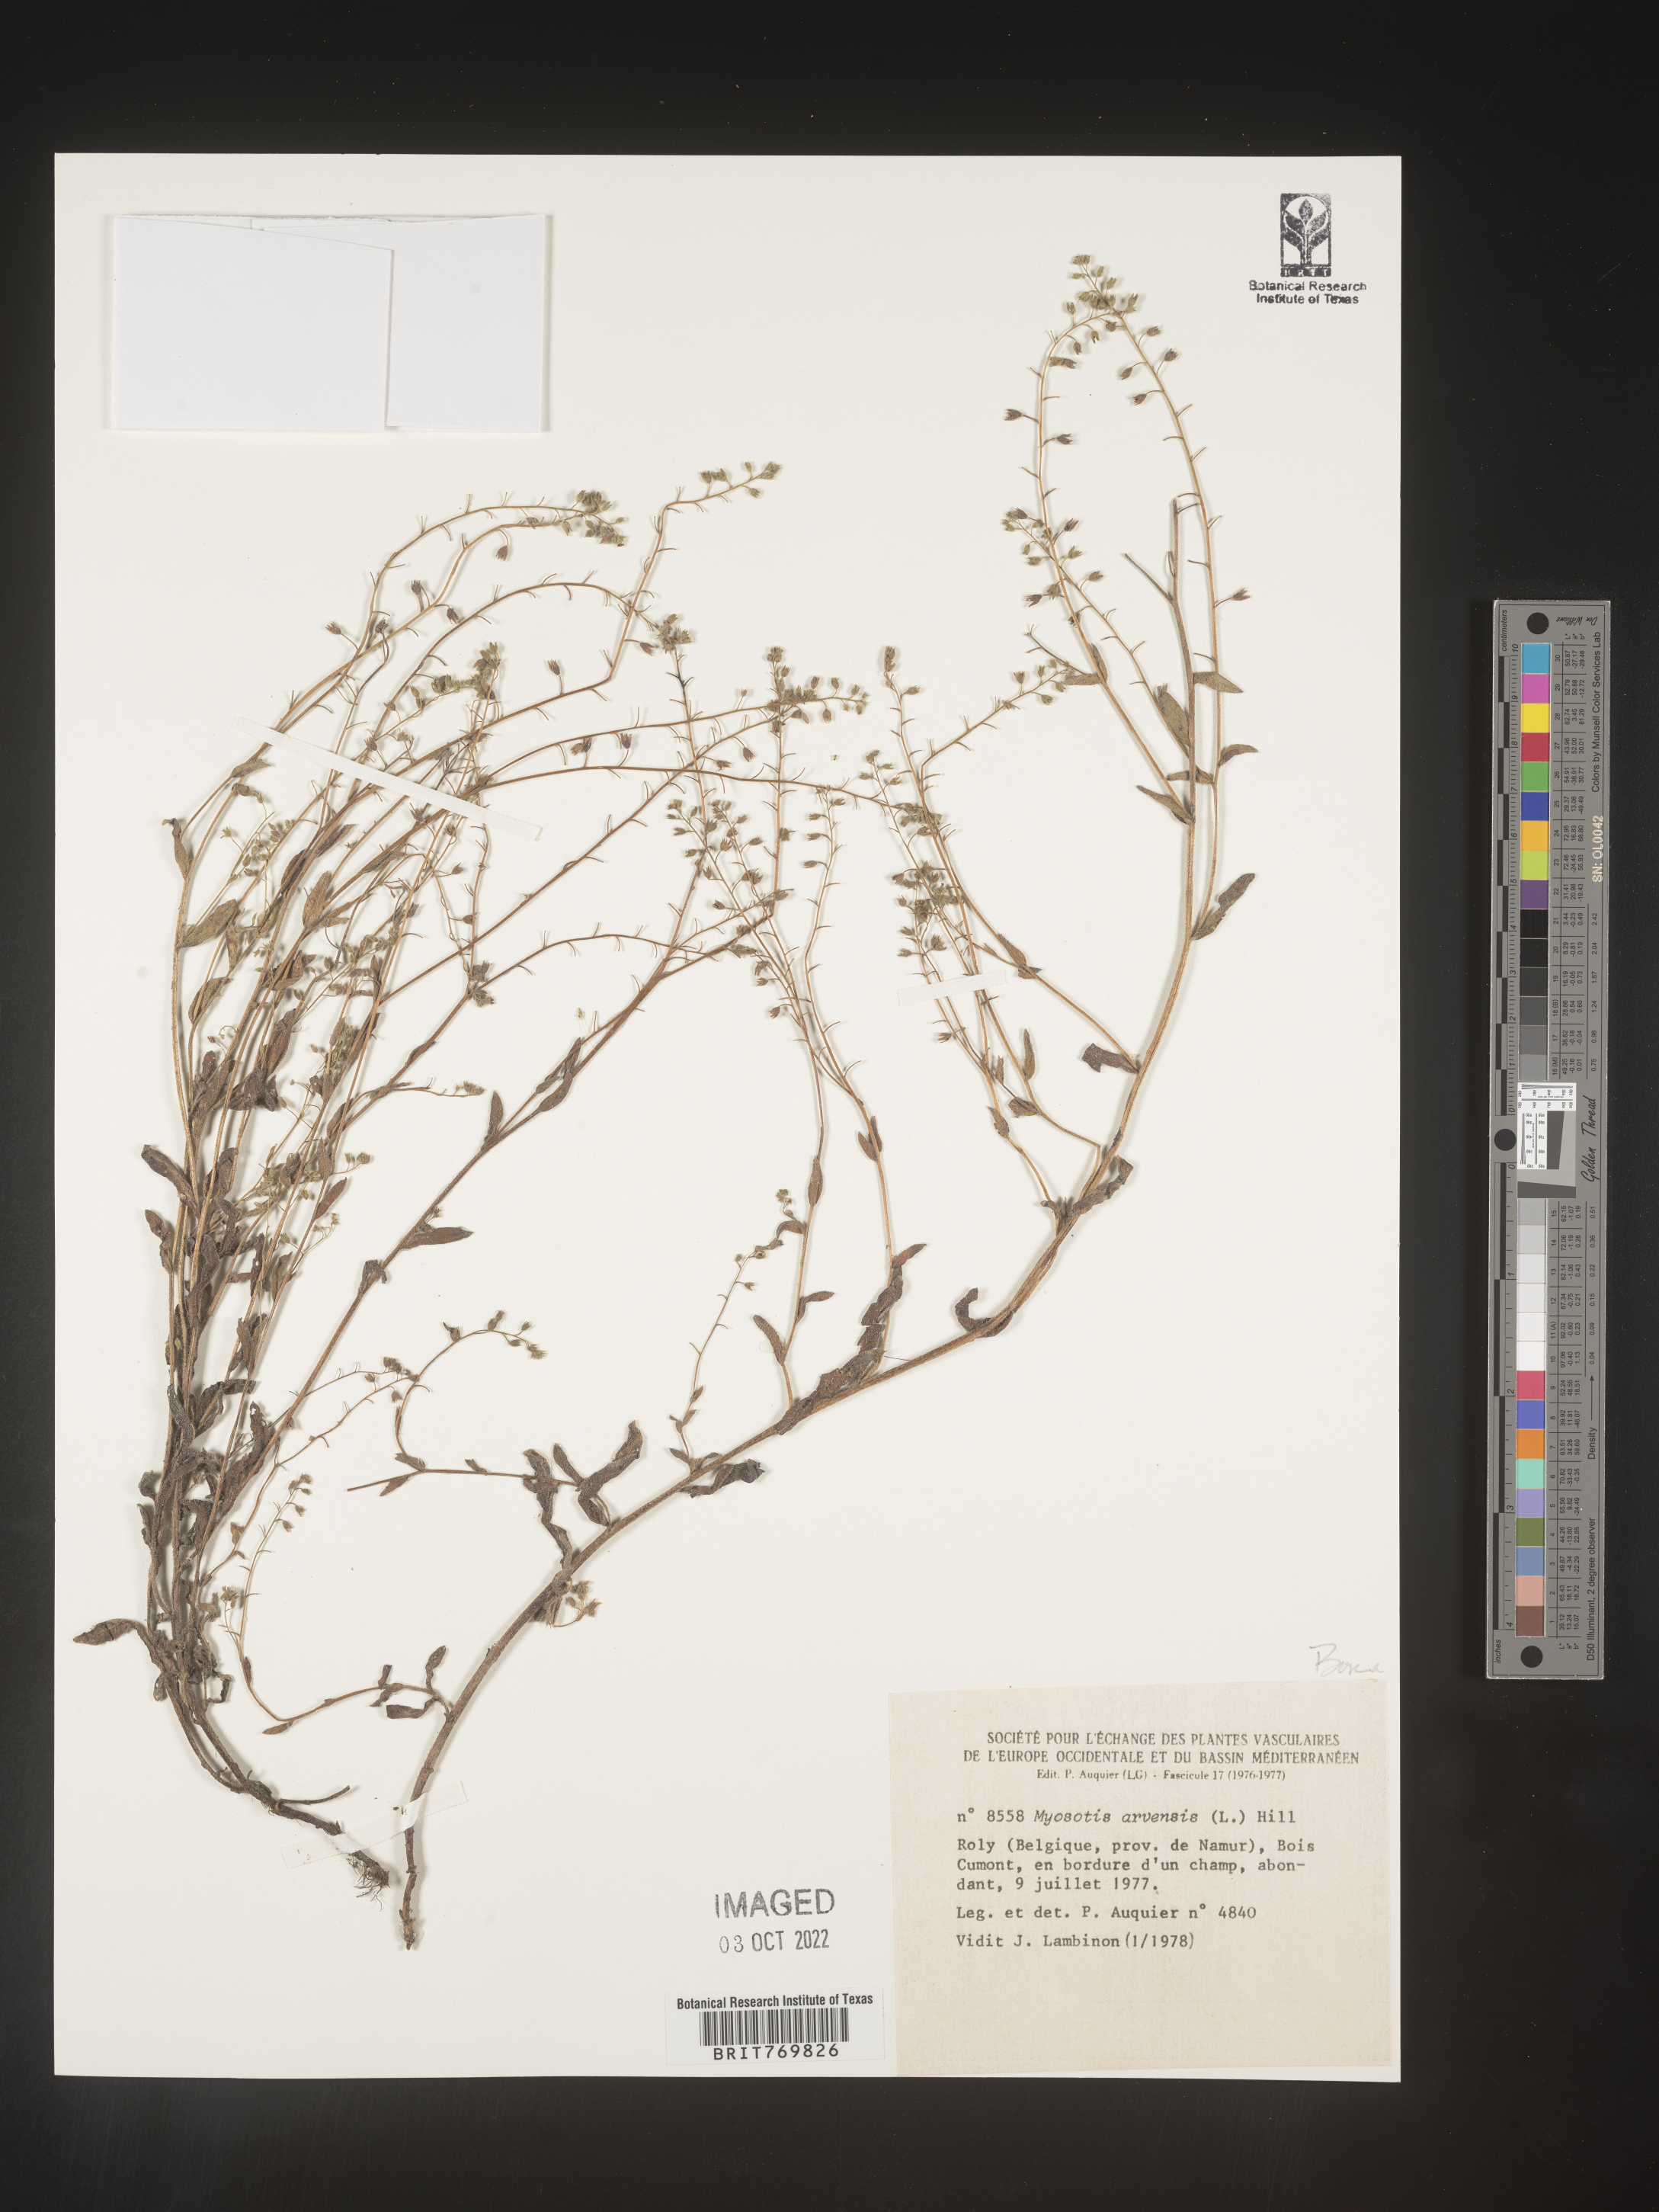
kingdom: Plantae
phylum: Tracheophyta
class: Magnoliopsida
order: Boraginales
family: Boraginaceae
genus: Myosotis
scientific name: Myosotis
